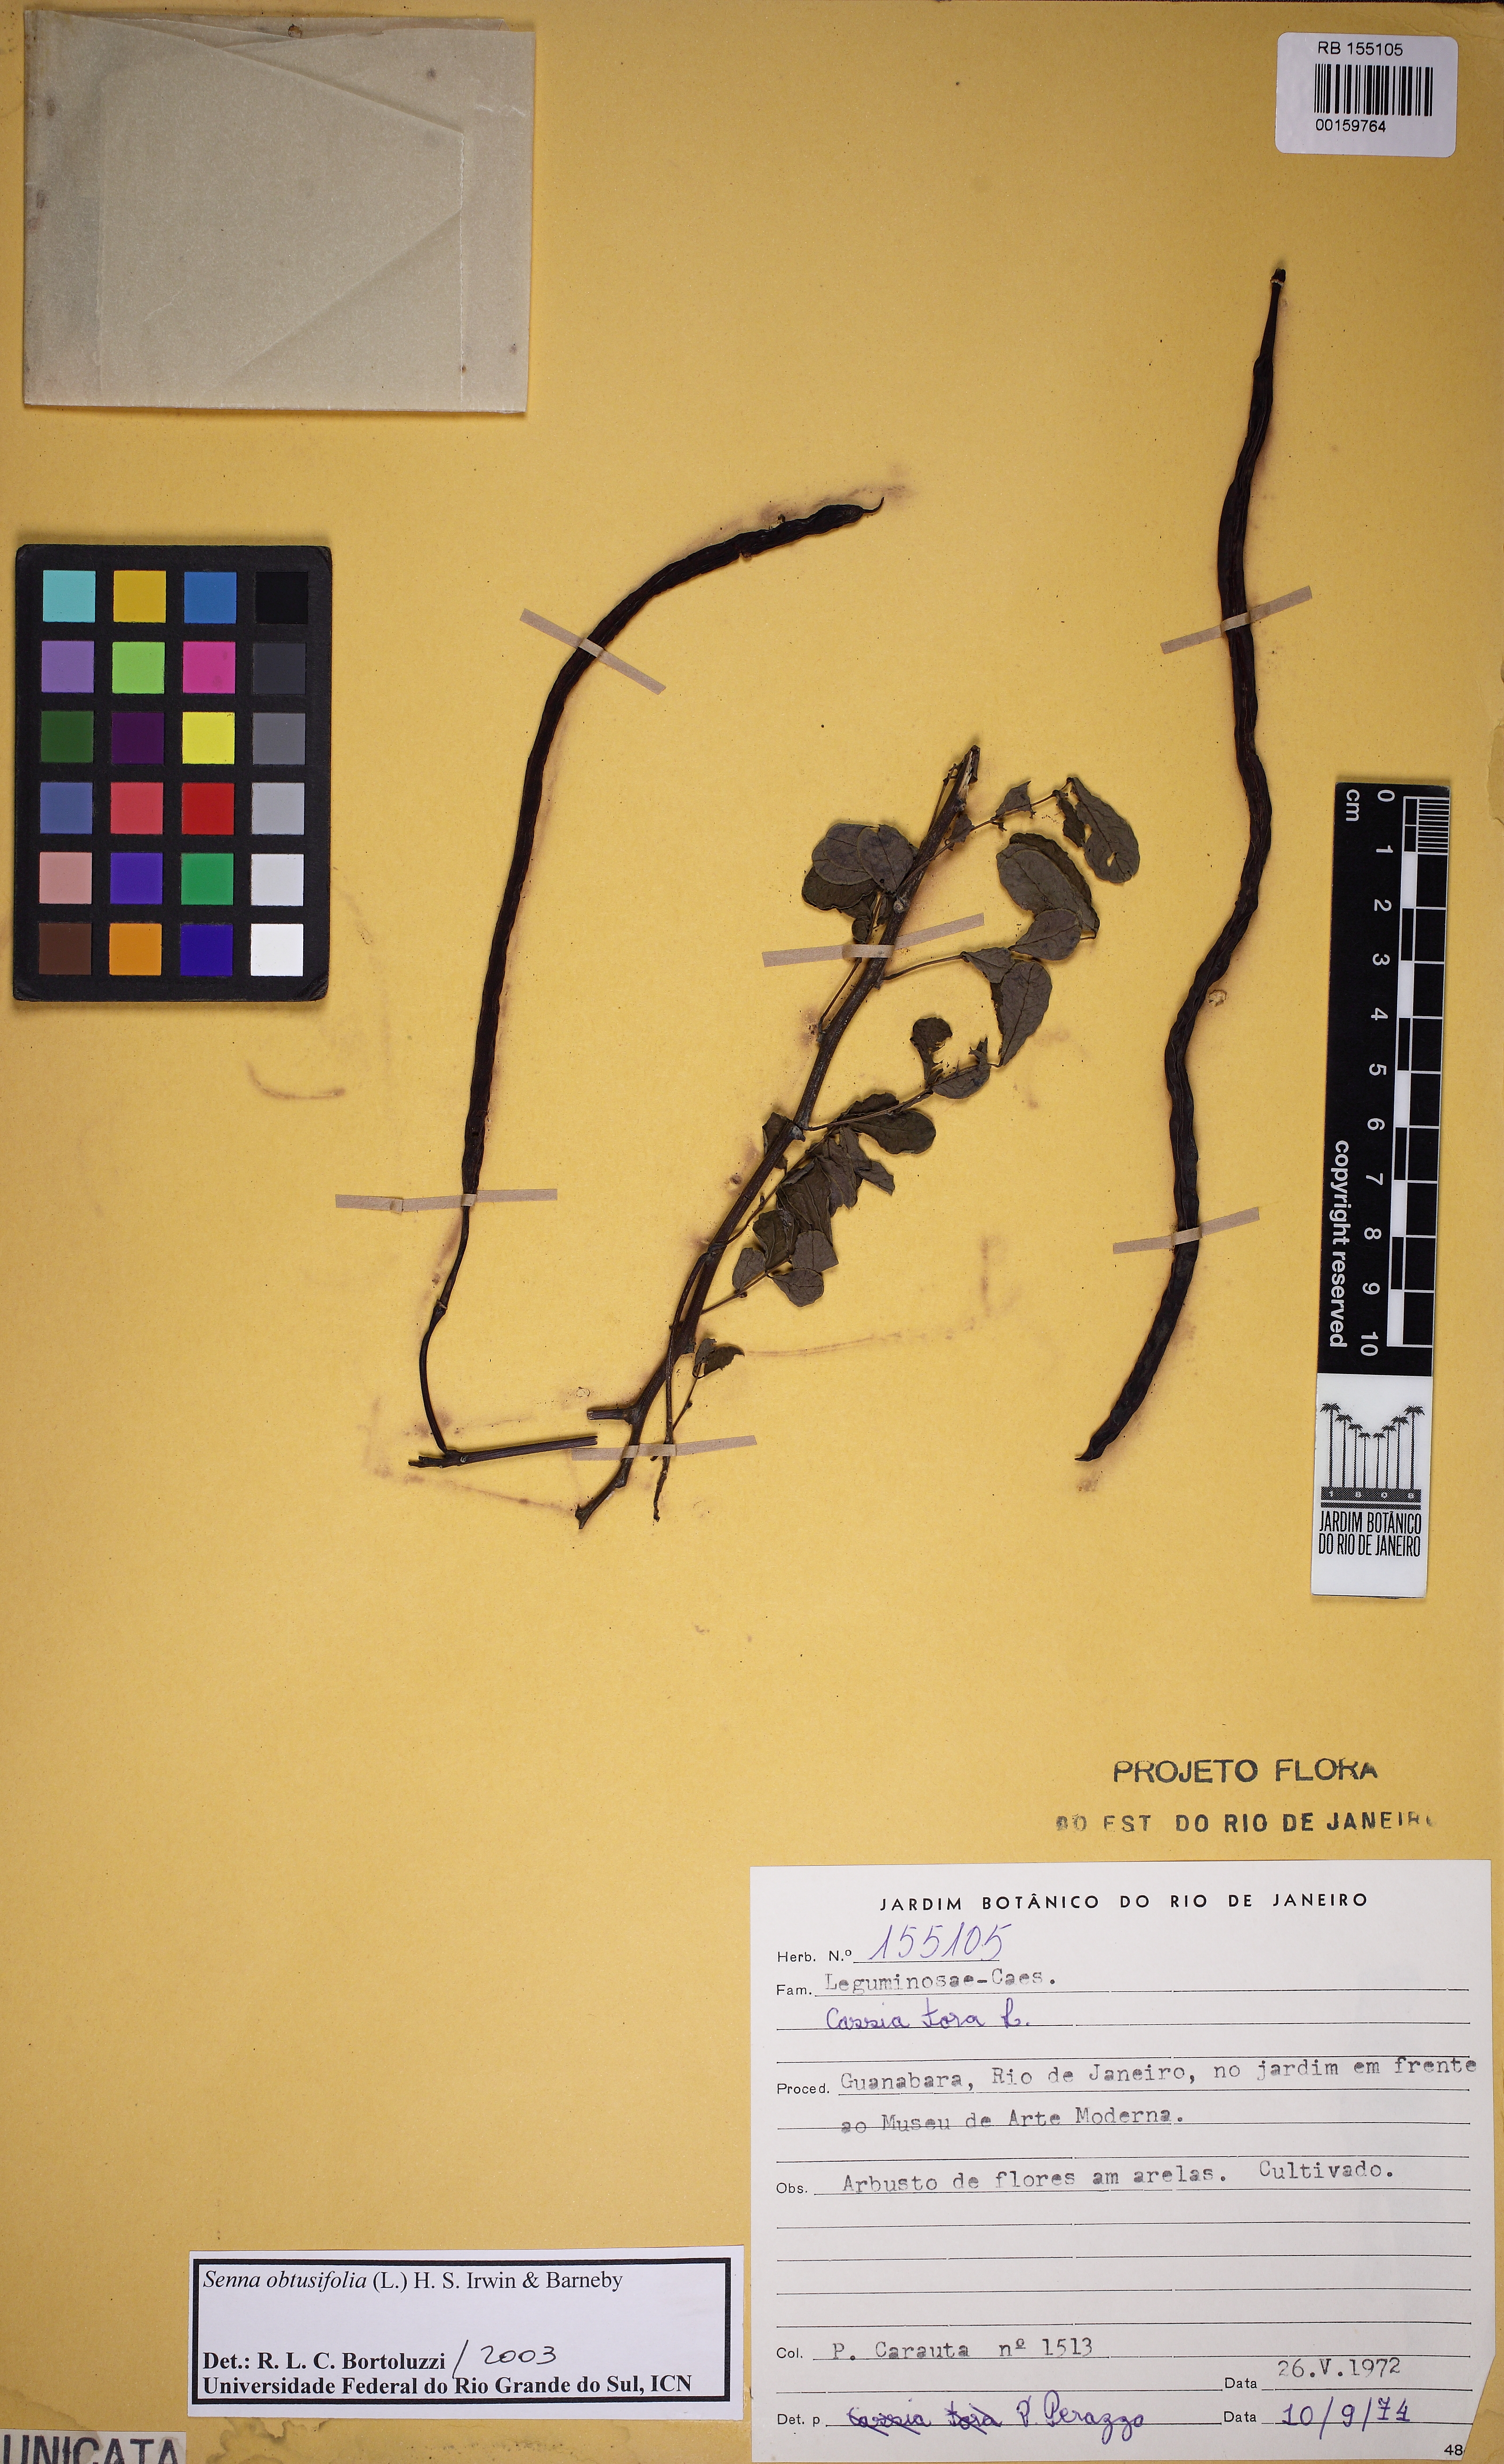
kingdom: Plantae
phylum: Tracheophyta
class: Magnoliopsida
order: Fabales
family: Fabaceae
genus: Senna
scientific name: Senna obtusifolia
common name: Java-bean
